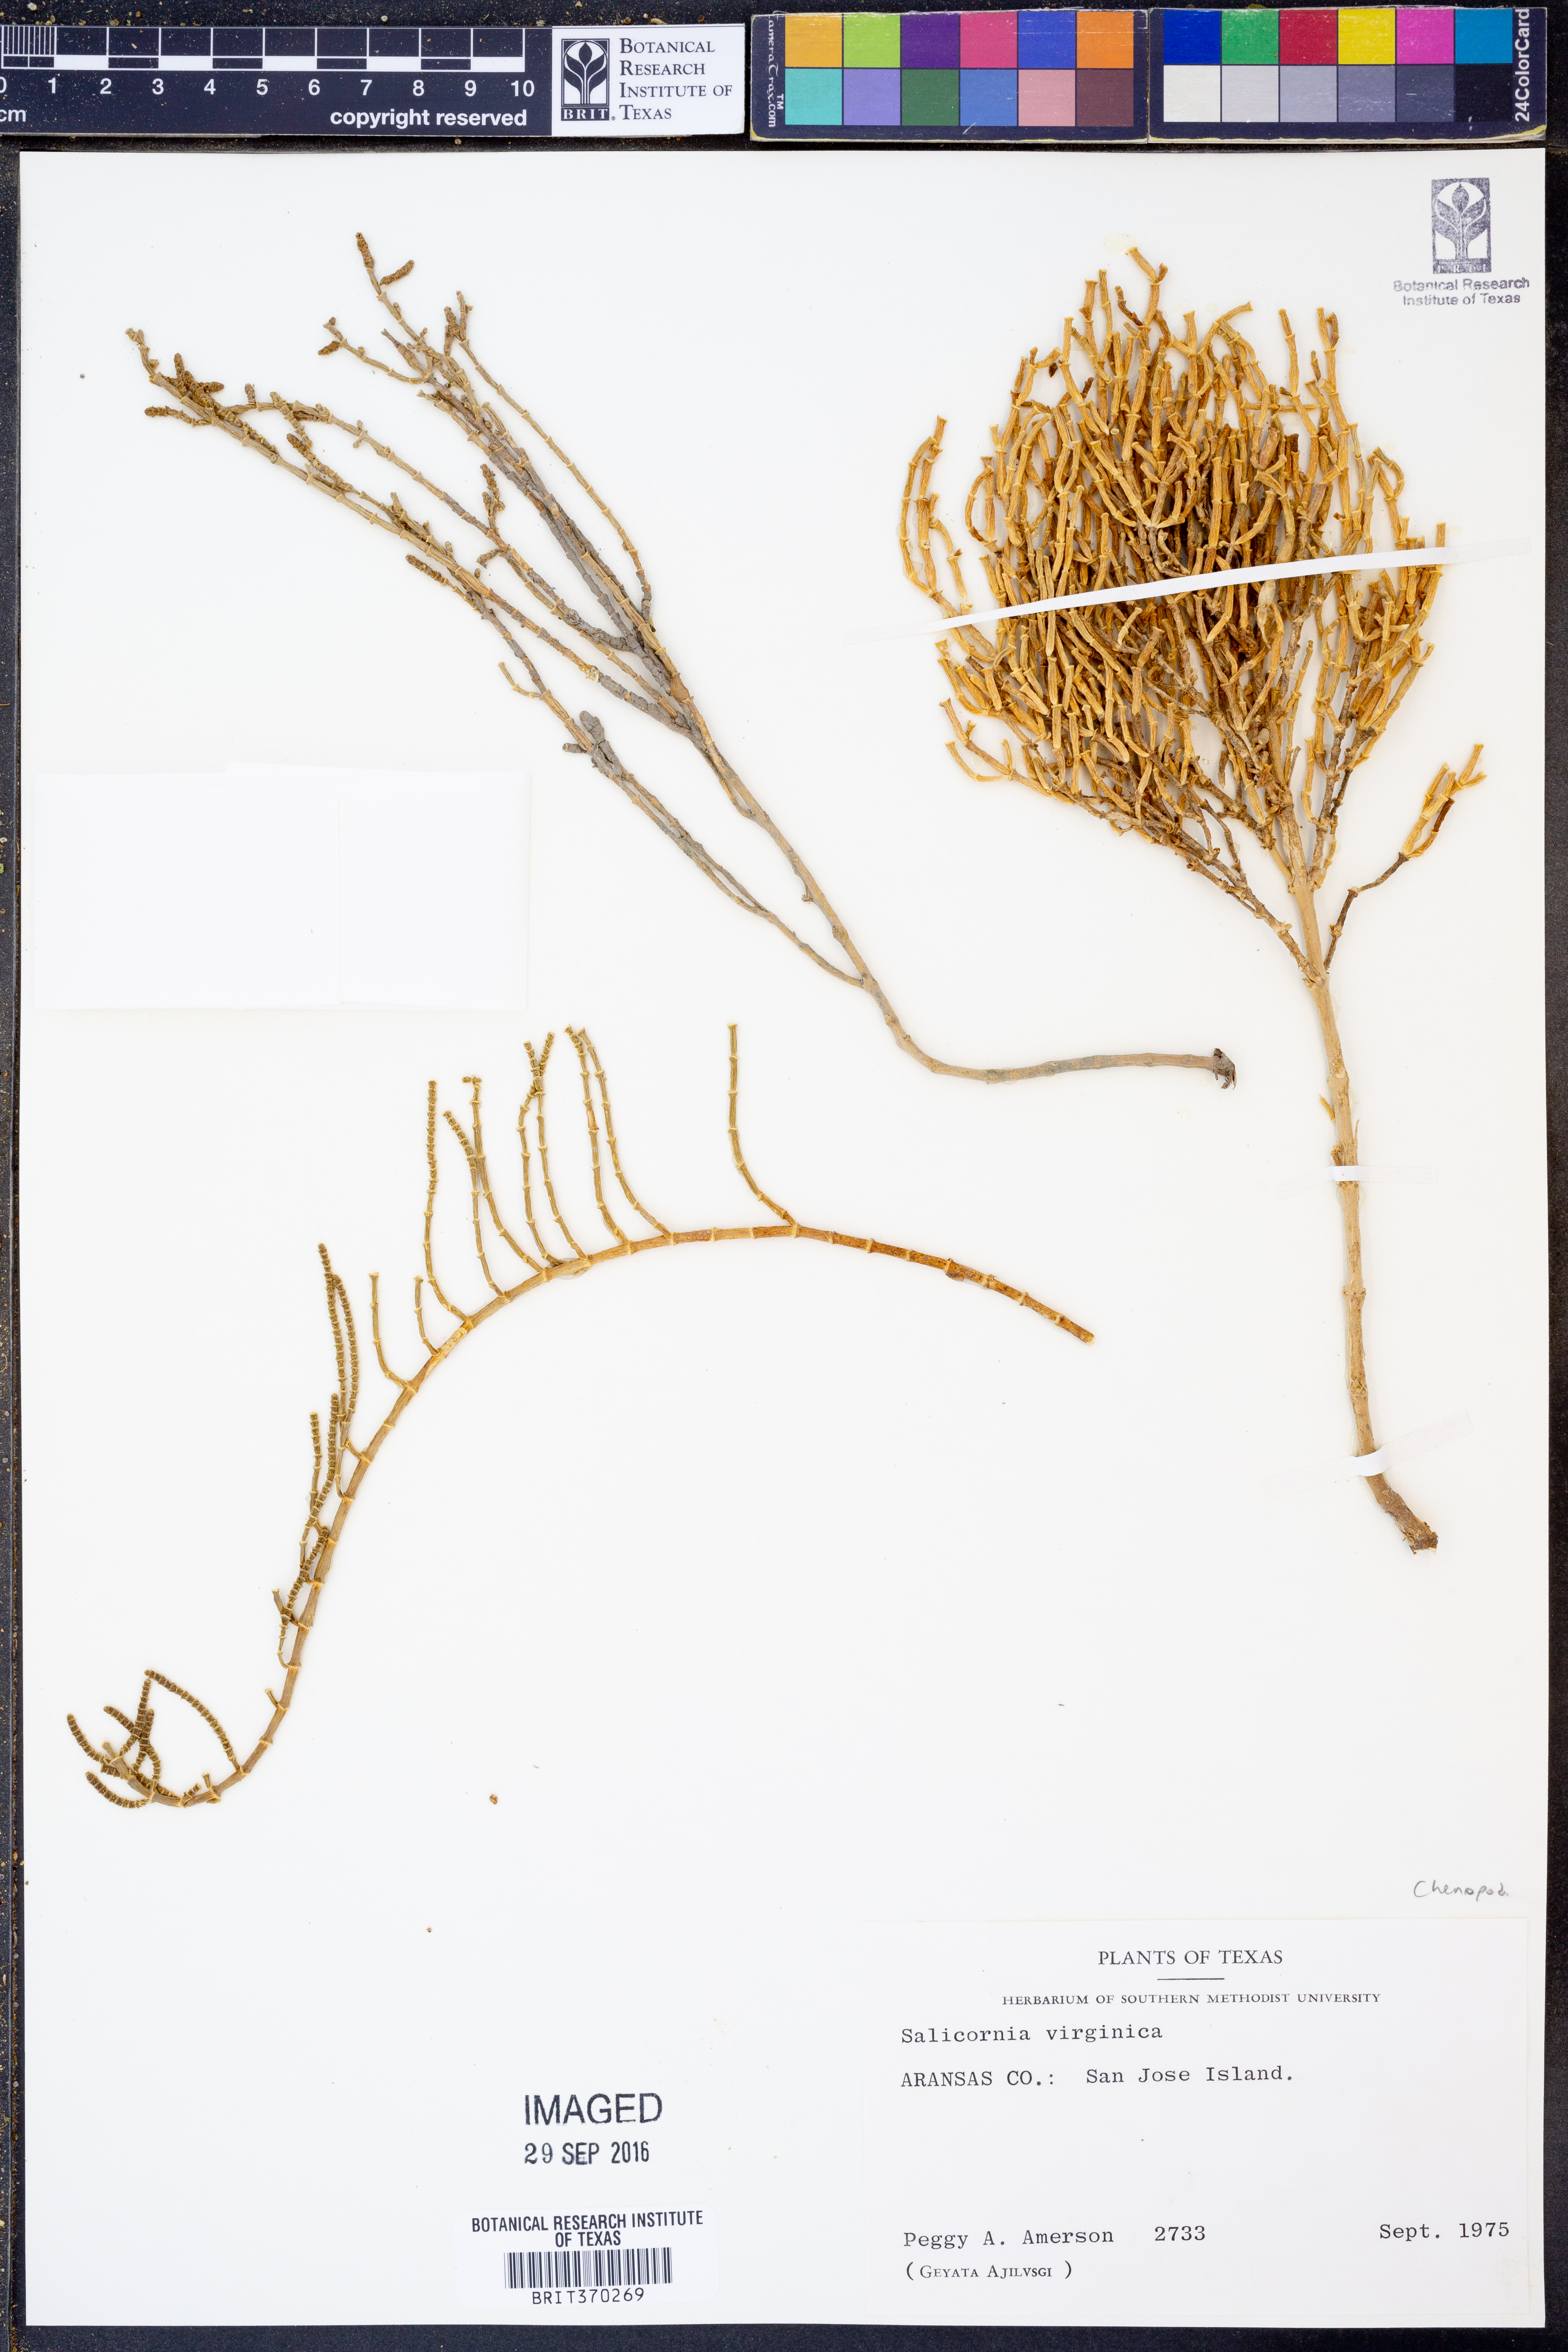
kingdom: Plantae
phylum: Tracheophyta
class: Magnoliopsida
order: Caryophyllales
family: Amaranthaceae
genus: Salicornia
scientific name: Salicornia virginica
